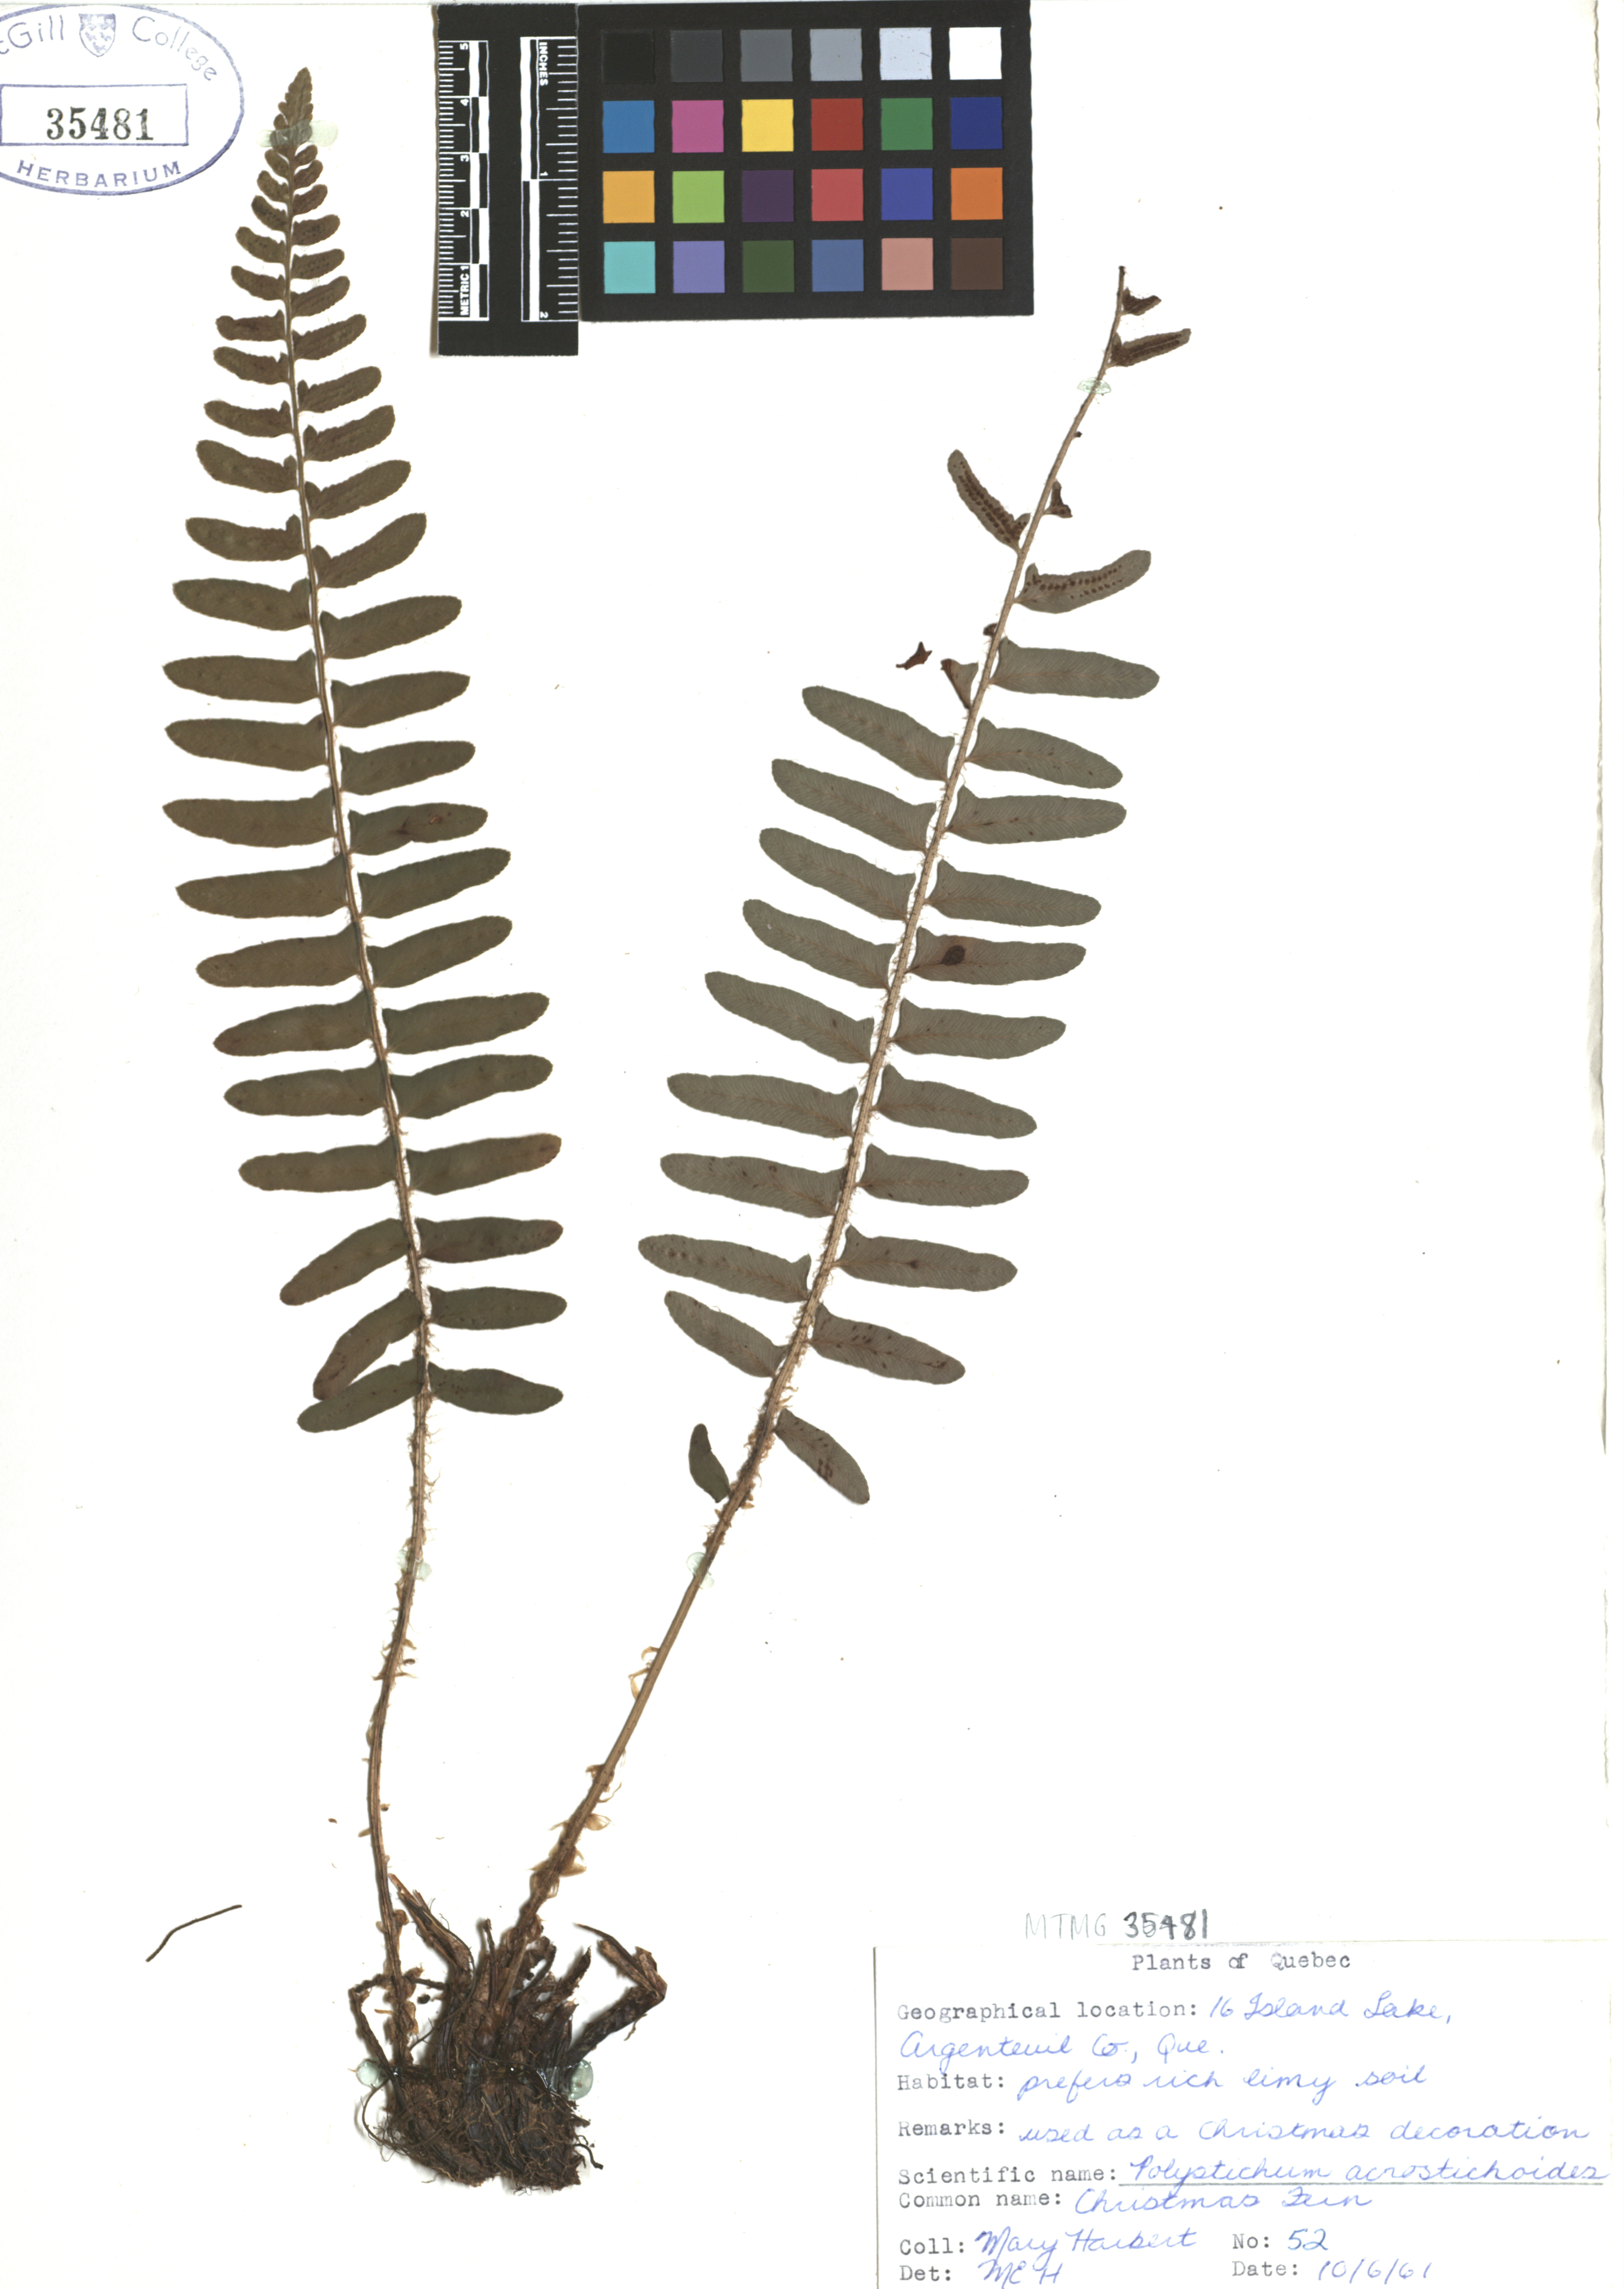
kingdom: Plantae
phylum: Tracheophyta
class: Polypodiopsida
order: Polypodiales
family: Dryopteridaceae
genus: Polystichum
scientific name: Polystichum acrostichoides
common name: Christmas fern
